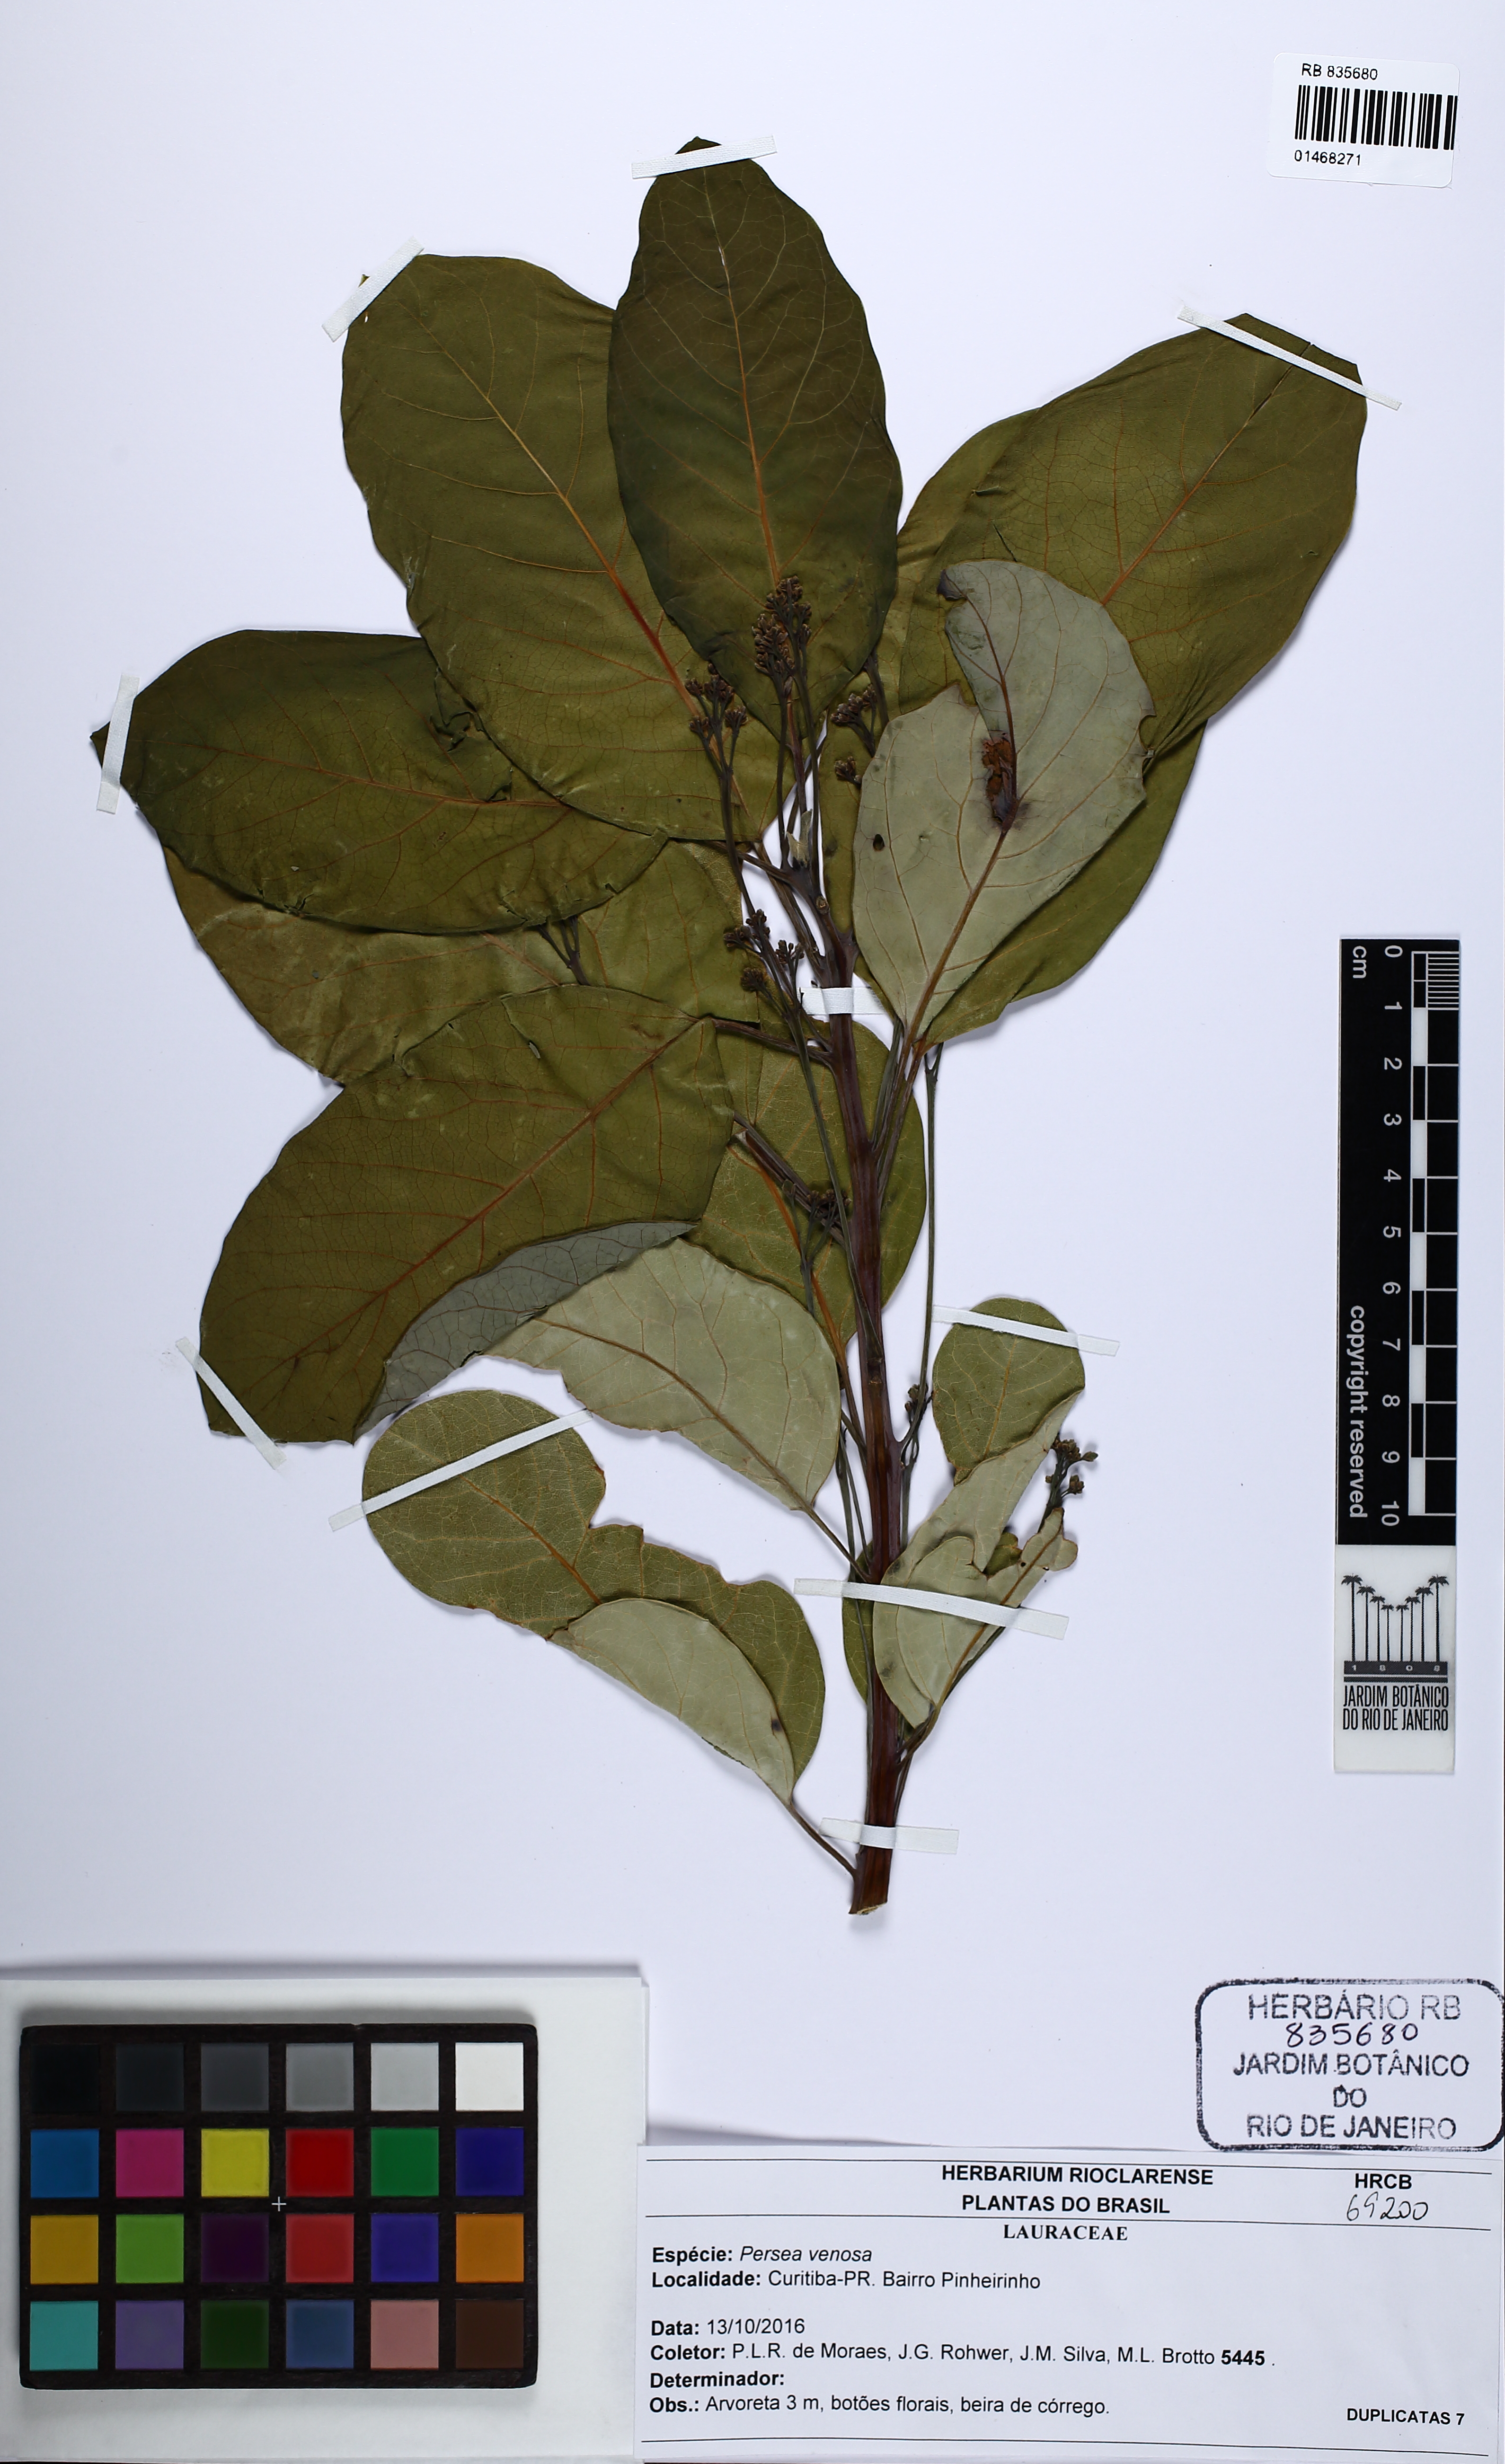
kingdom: Plantae
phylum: Tracheophyta
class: Magnoliopsida
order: Laurales
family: Lauraceae
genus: Persea
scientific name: Persea venosa
